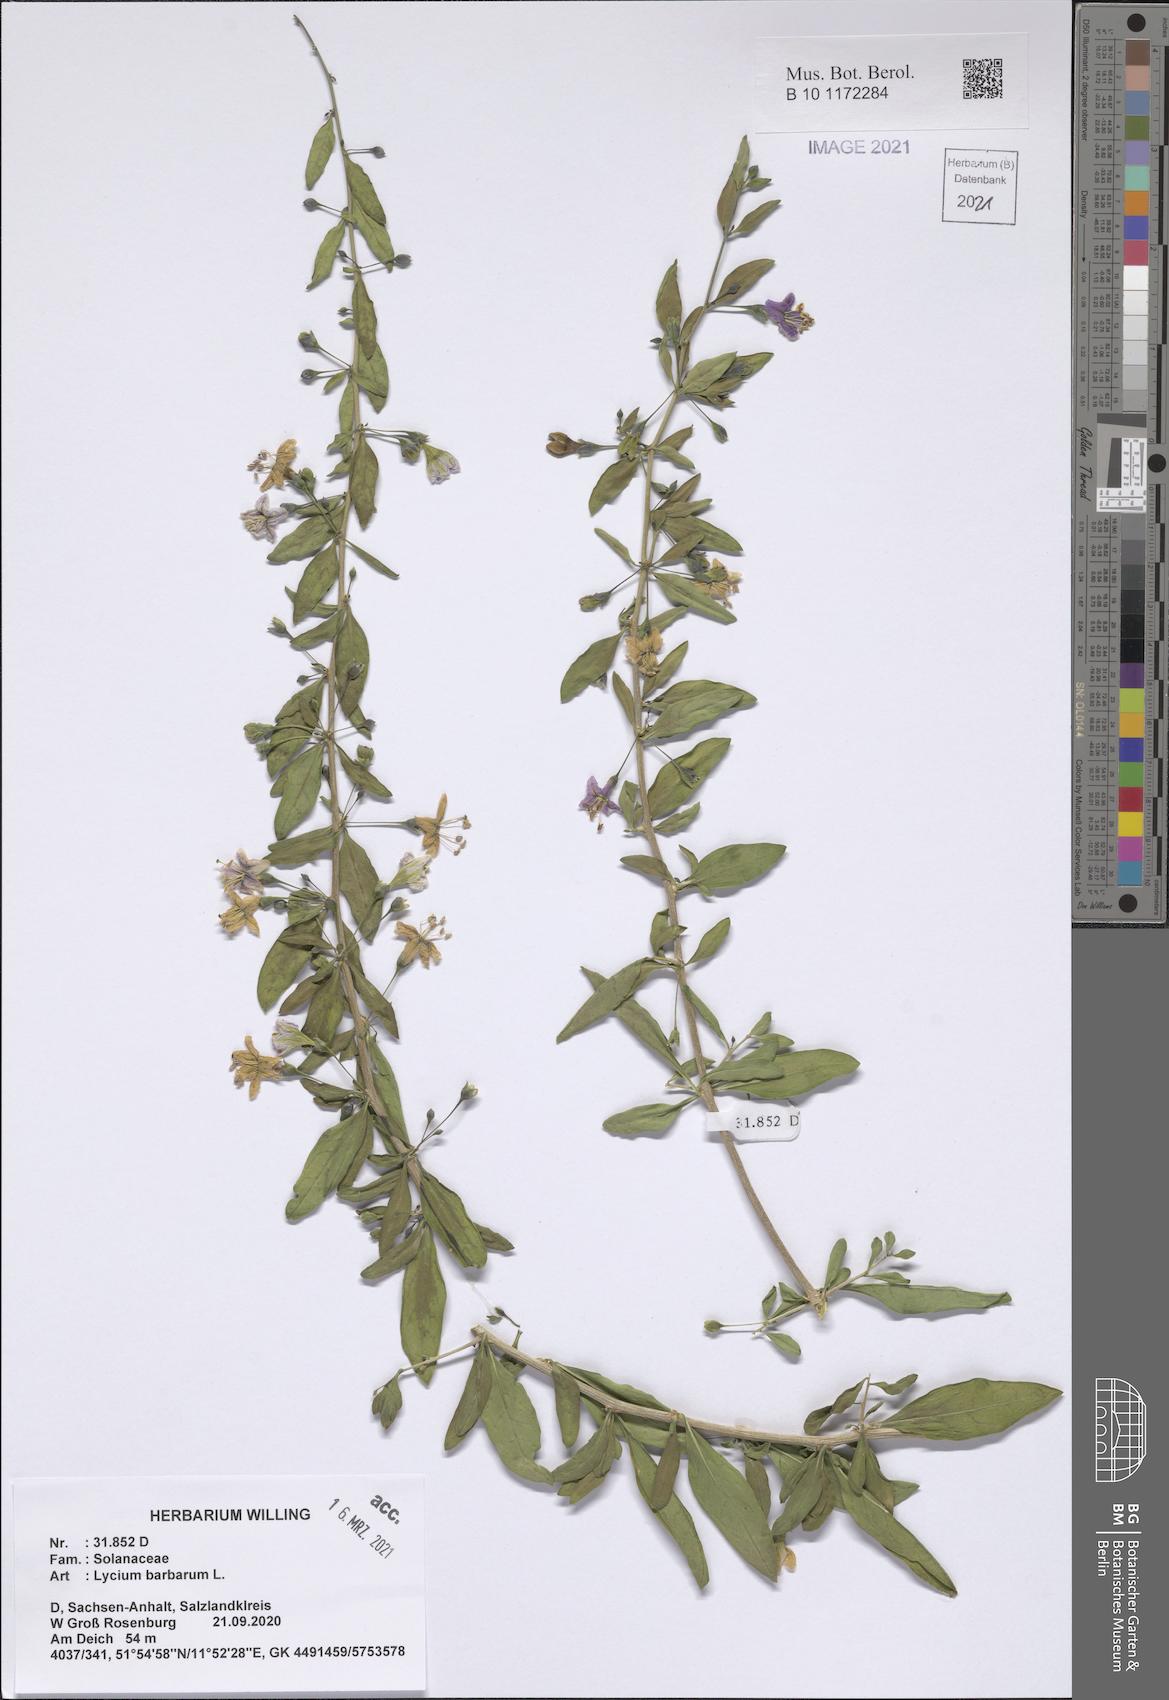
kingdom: Plantae
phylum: Tracheophyta
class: Magnoliopsida
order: Solanales
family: Solanaceae
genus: Lycium
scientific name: Lycium barbarum
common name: Duke of argyll's teaplant
